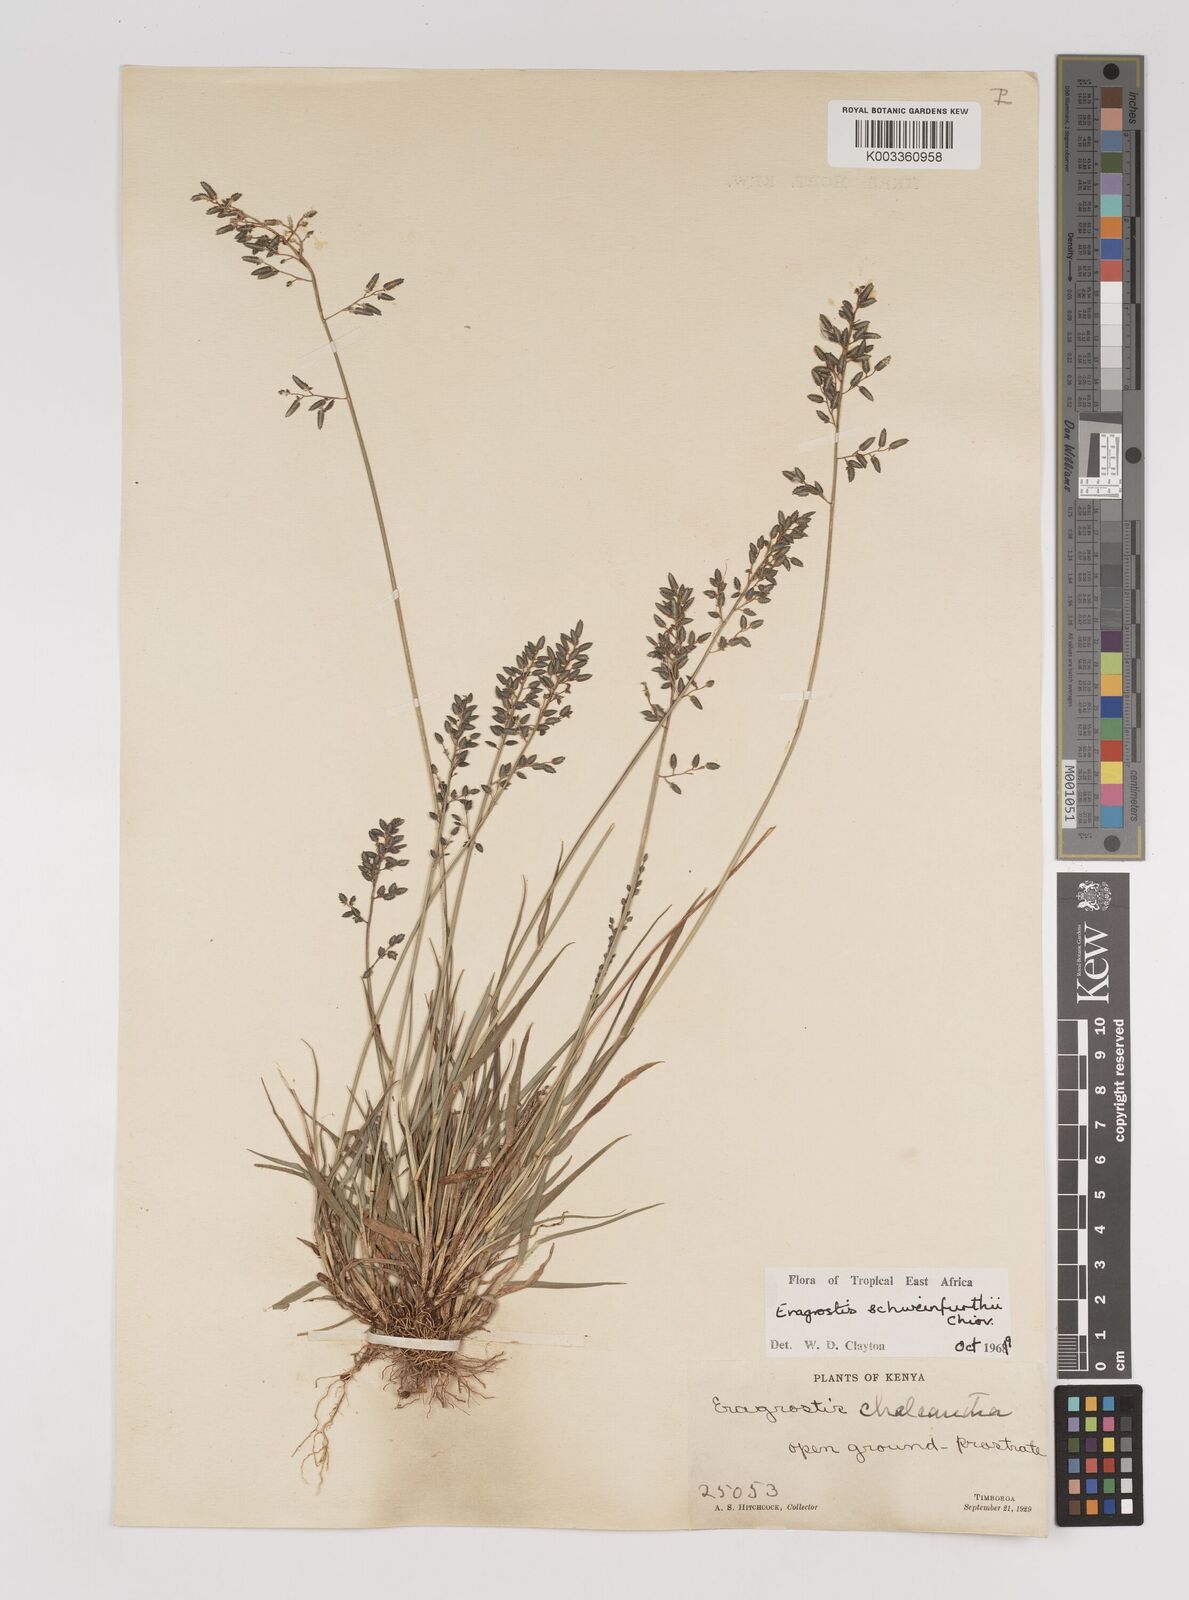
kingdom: Plantae
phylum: Tracheophyta
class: Liliopsida
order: Poales
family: Poaceae
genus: Eragrostis
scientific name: Eragrostis schweinfurthii
